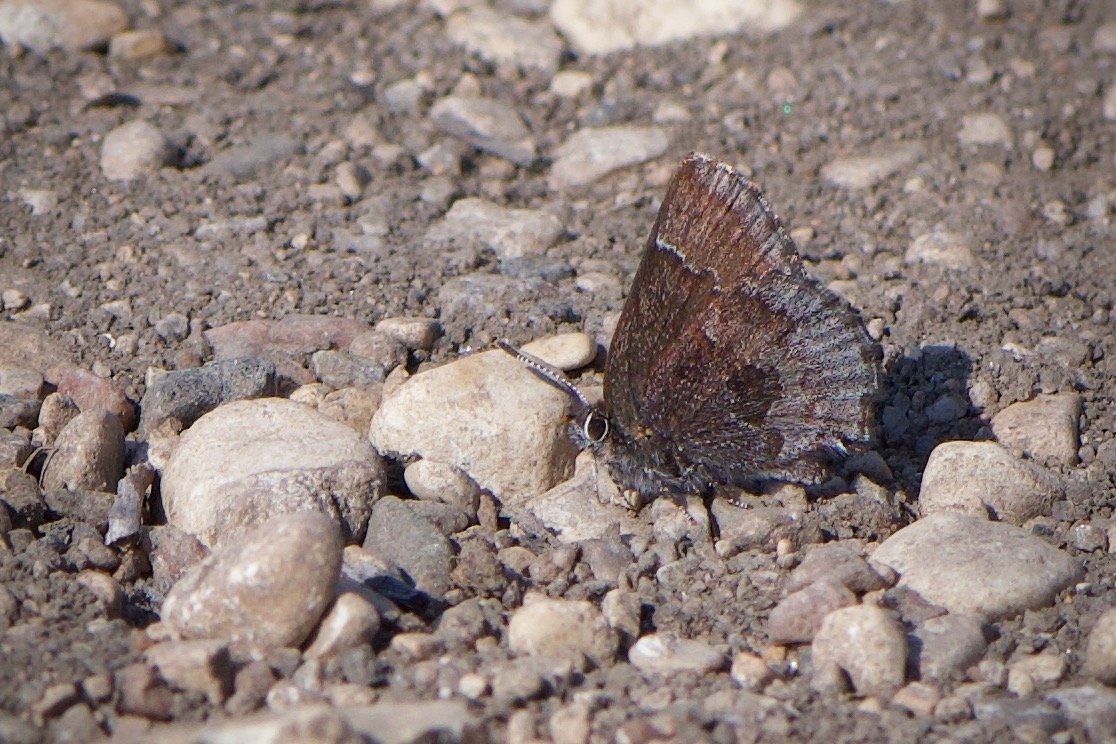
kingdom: Animalia
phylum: Arthropoda
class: Insecta
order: Lepidoptera
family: Lycaenidae
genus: Callophrys
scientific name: Callophrys polios
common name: Hoary Elfin
